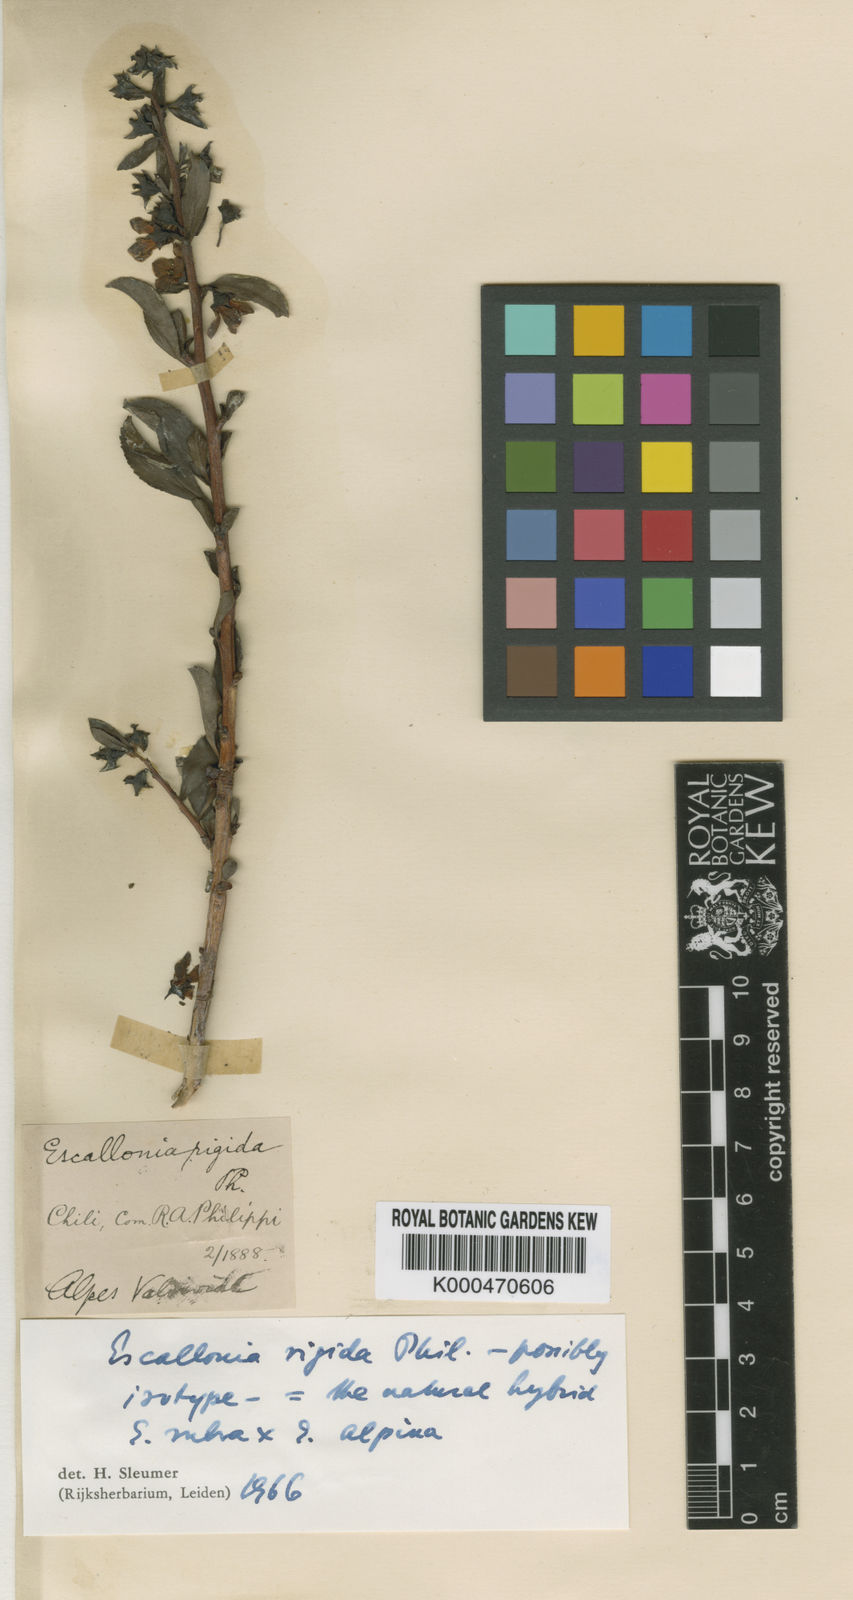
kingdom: Plantae
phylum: Tracheophyta
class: Magnoliopsida
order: Escalloniales
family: Escalloniaceae
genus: Escallonia
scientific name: Escallonia rubra
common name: Redclaws
